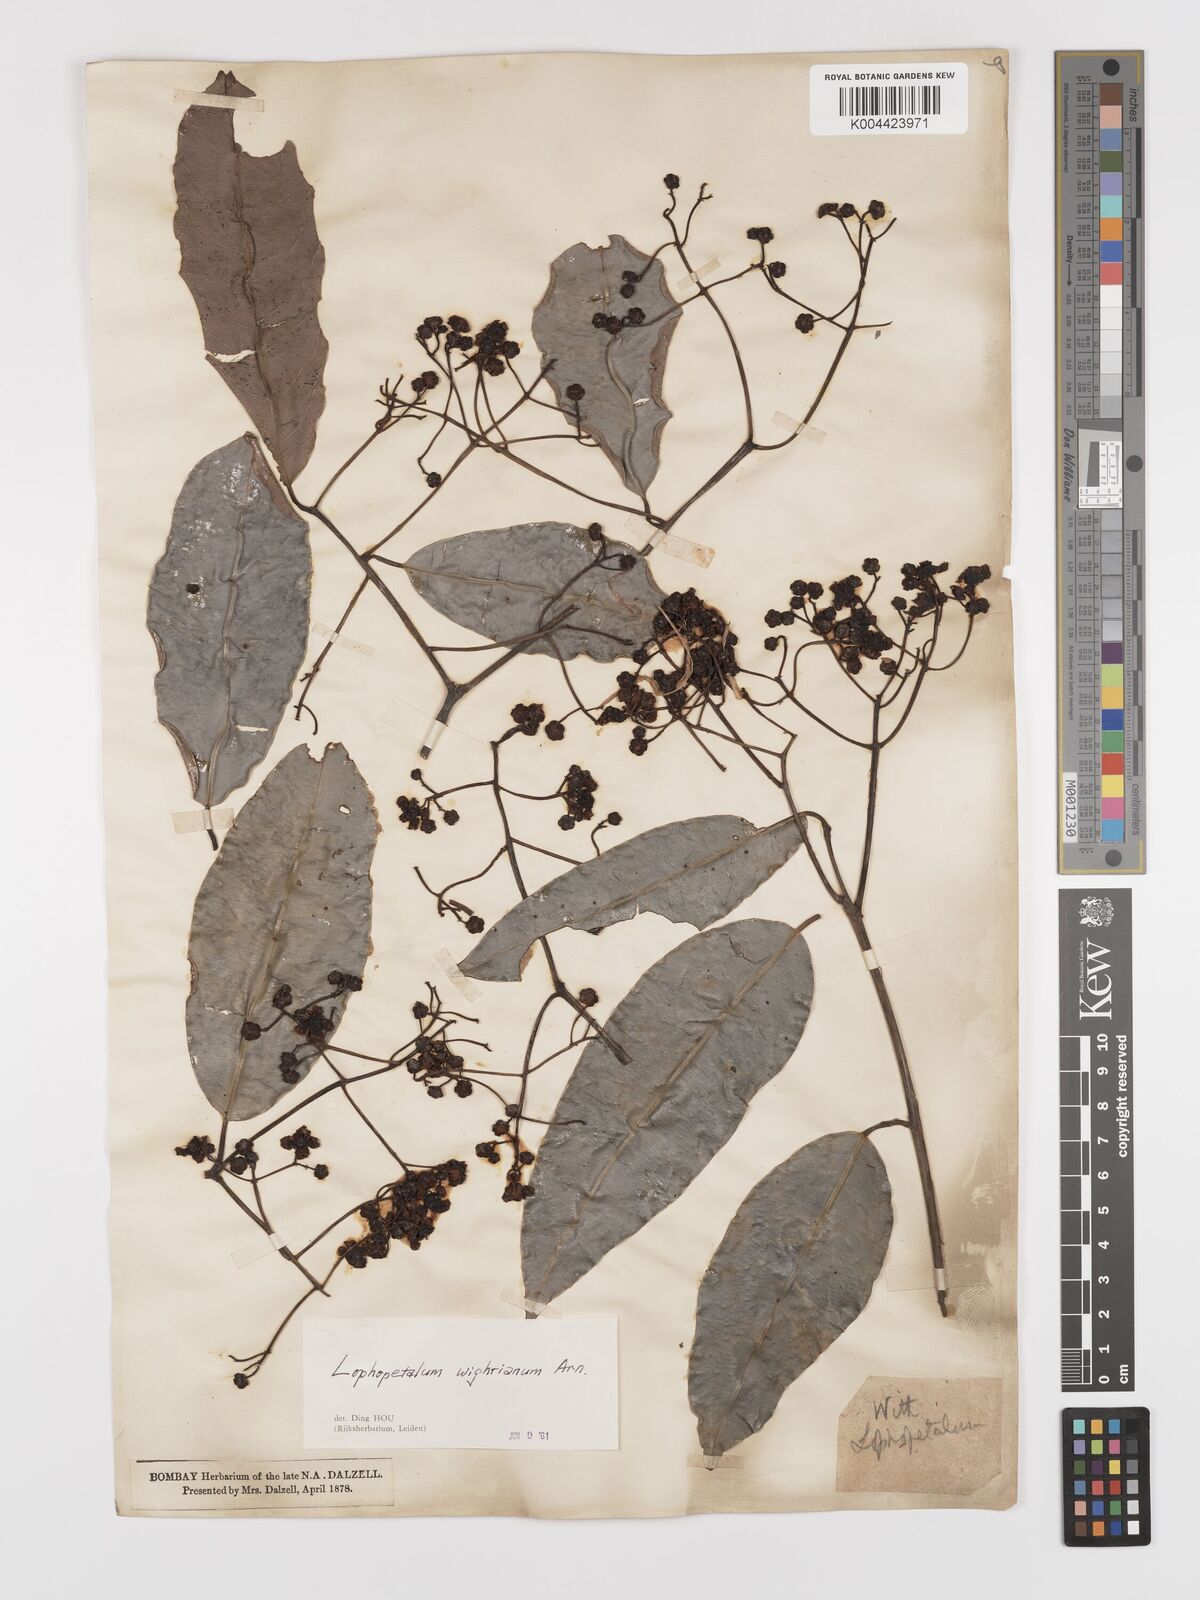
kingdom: Plantae
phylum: Tracheophyta
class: Magnoliopsida
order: Celastrales
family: Celastraceae
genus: Lophopetalum
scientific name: Lophopetalum wightianum
